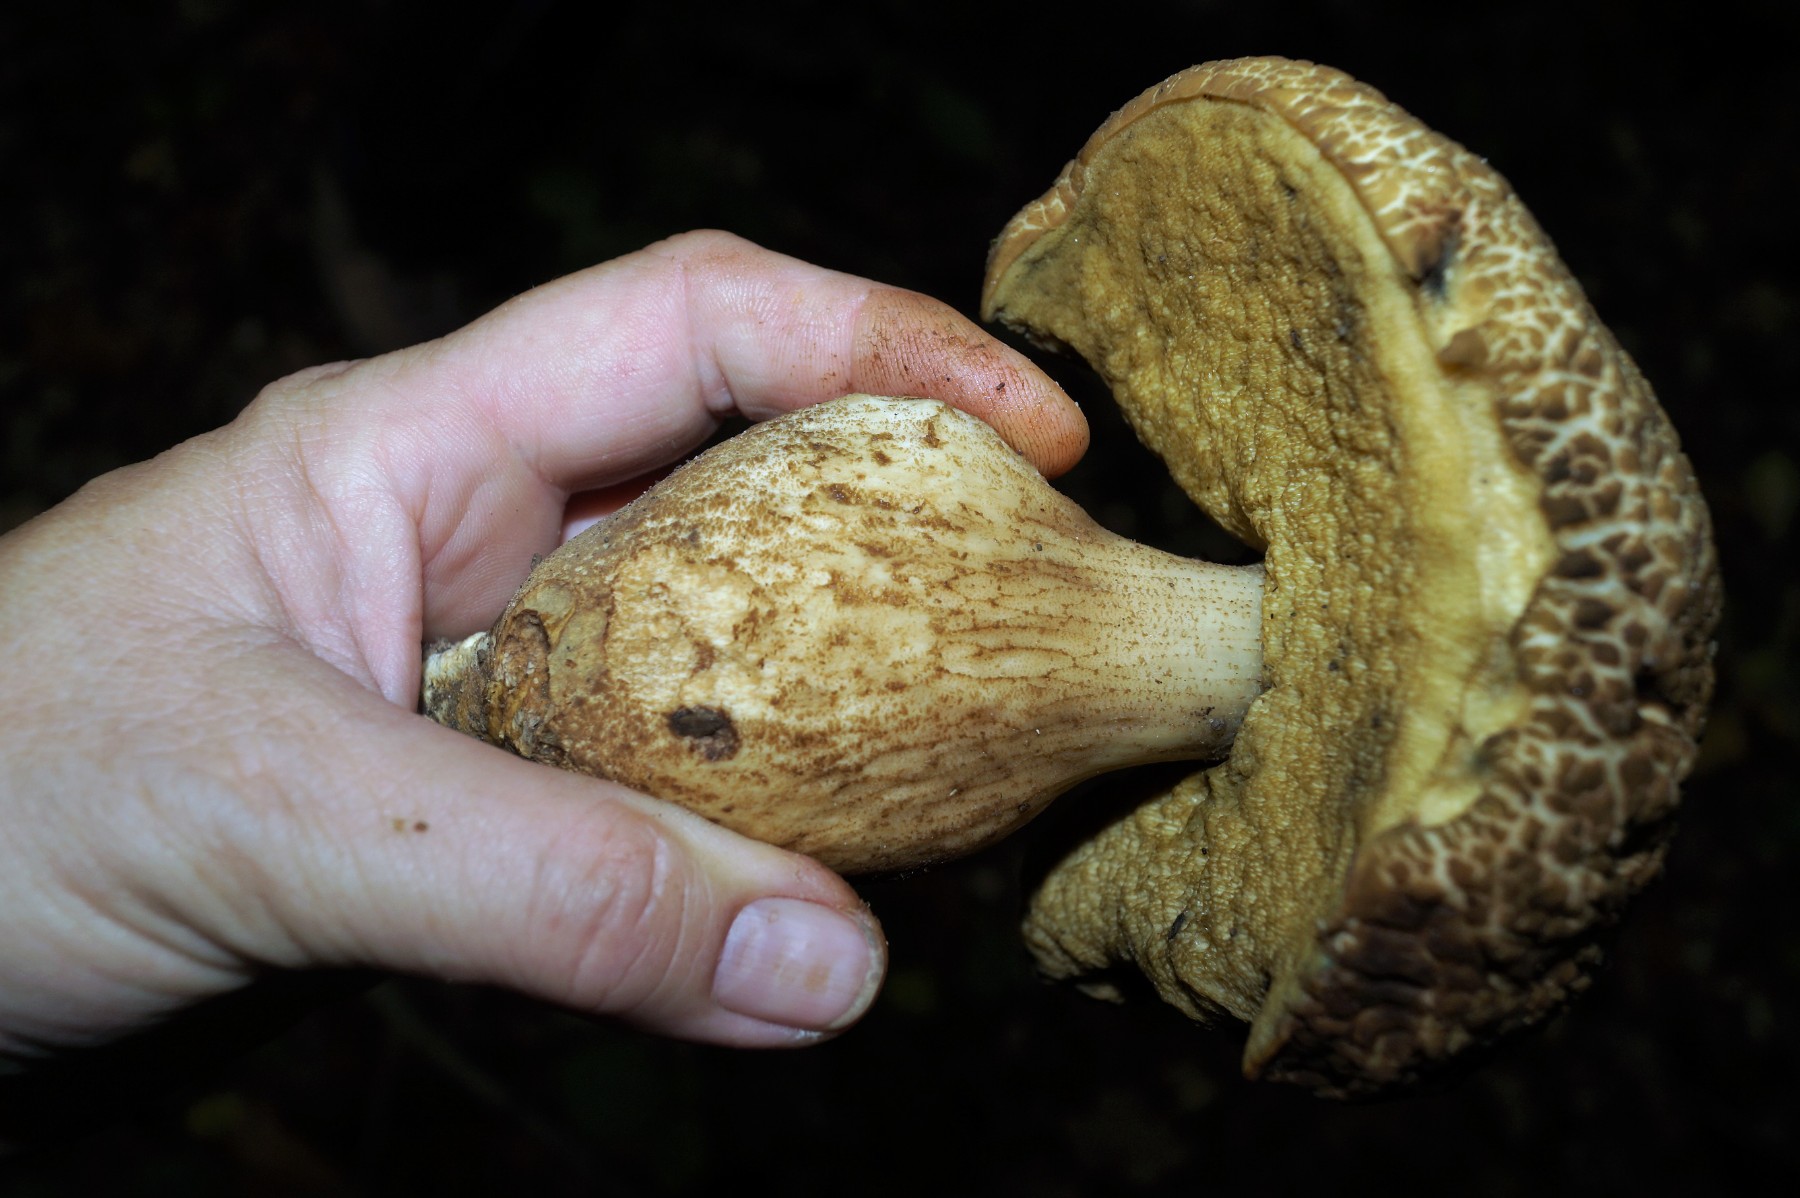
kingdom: Fungi
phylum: Basidiomycota
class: Agaricomycetes
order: Boletales
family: Boletaceae
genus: Leccinellum
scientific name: Leccinellum crocipodium
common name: gul skælrørhat
